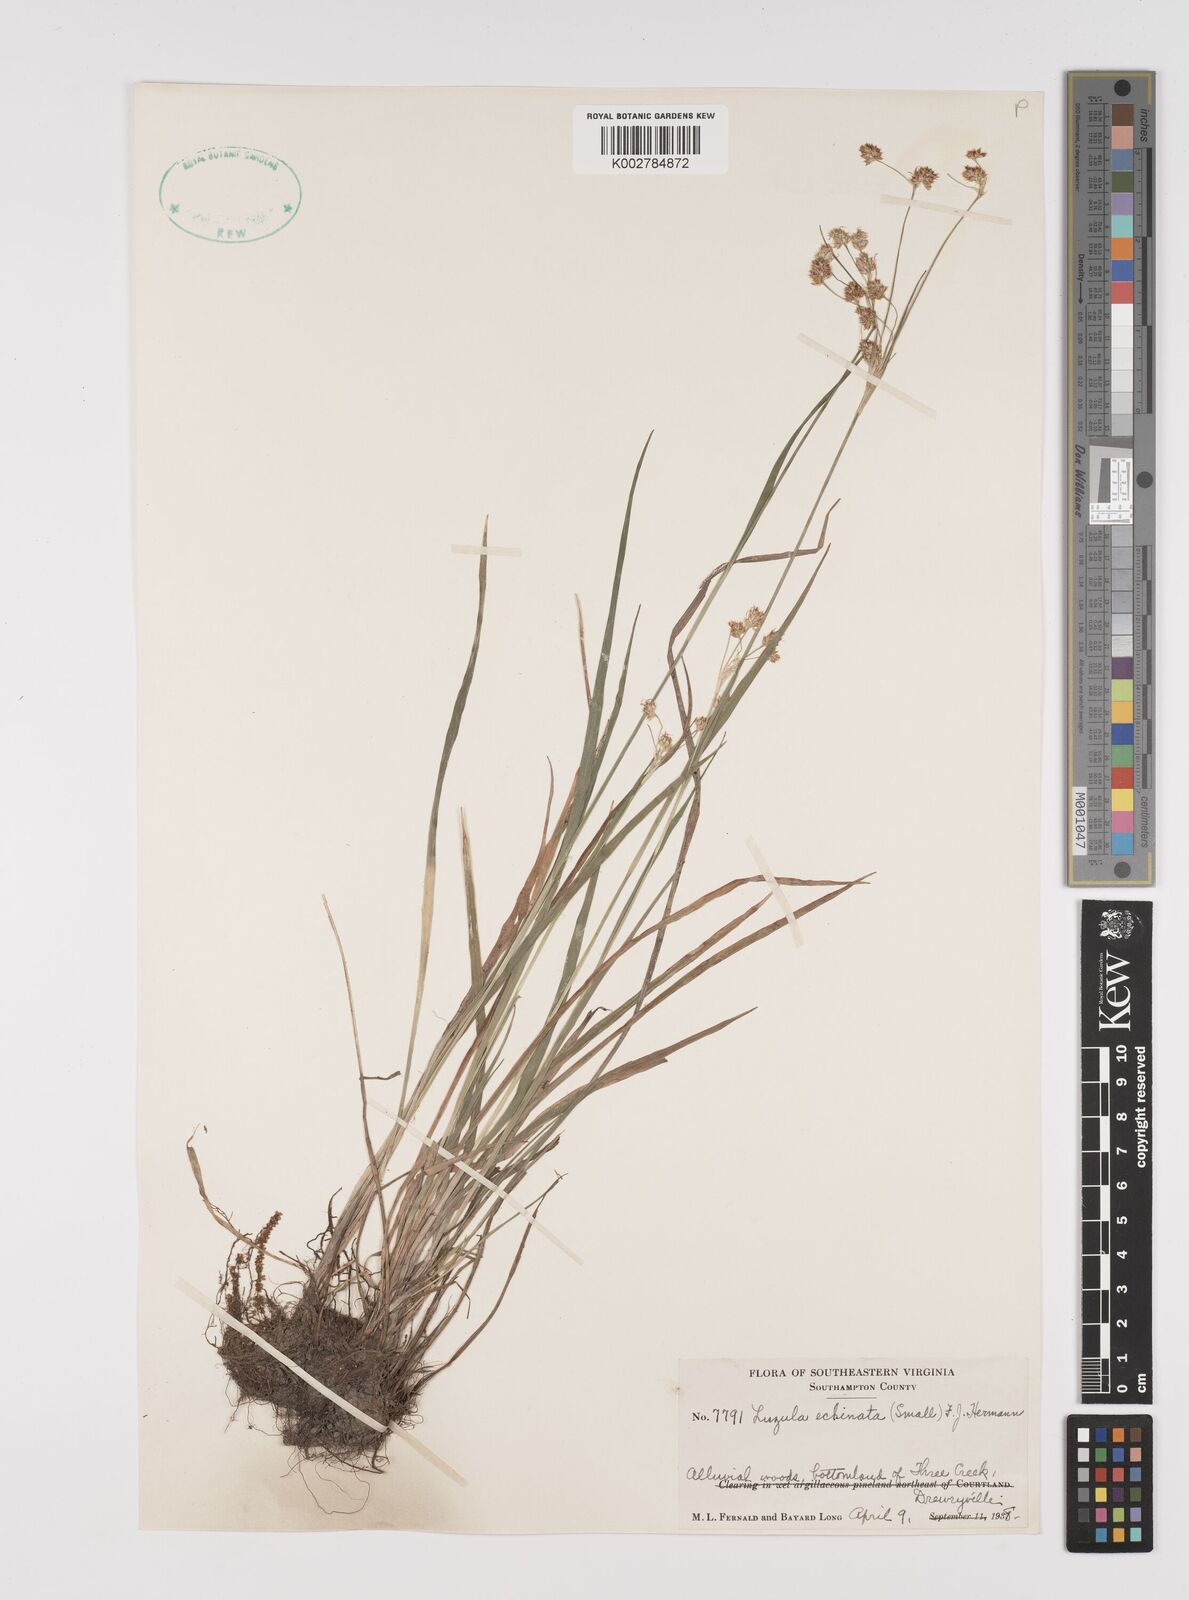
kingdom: Plantae
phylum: Tracheophyta
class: Liliopsida
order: Poales
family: Juncaceae
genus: Luzula
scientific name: Luzula echinata
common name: Hedgehog woodrush
